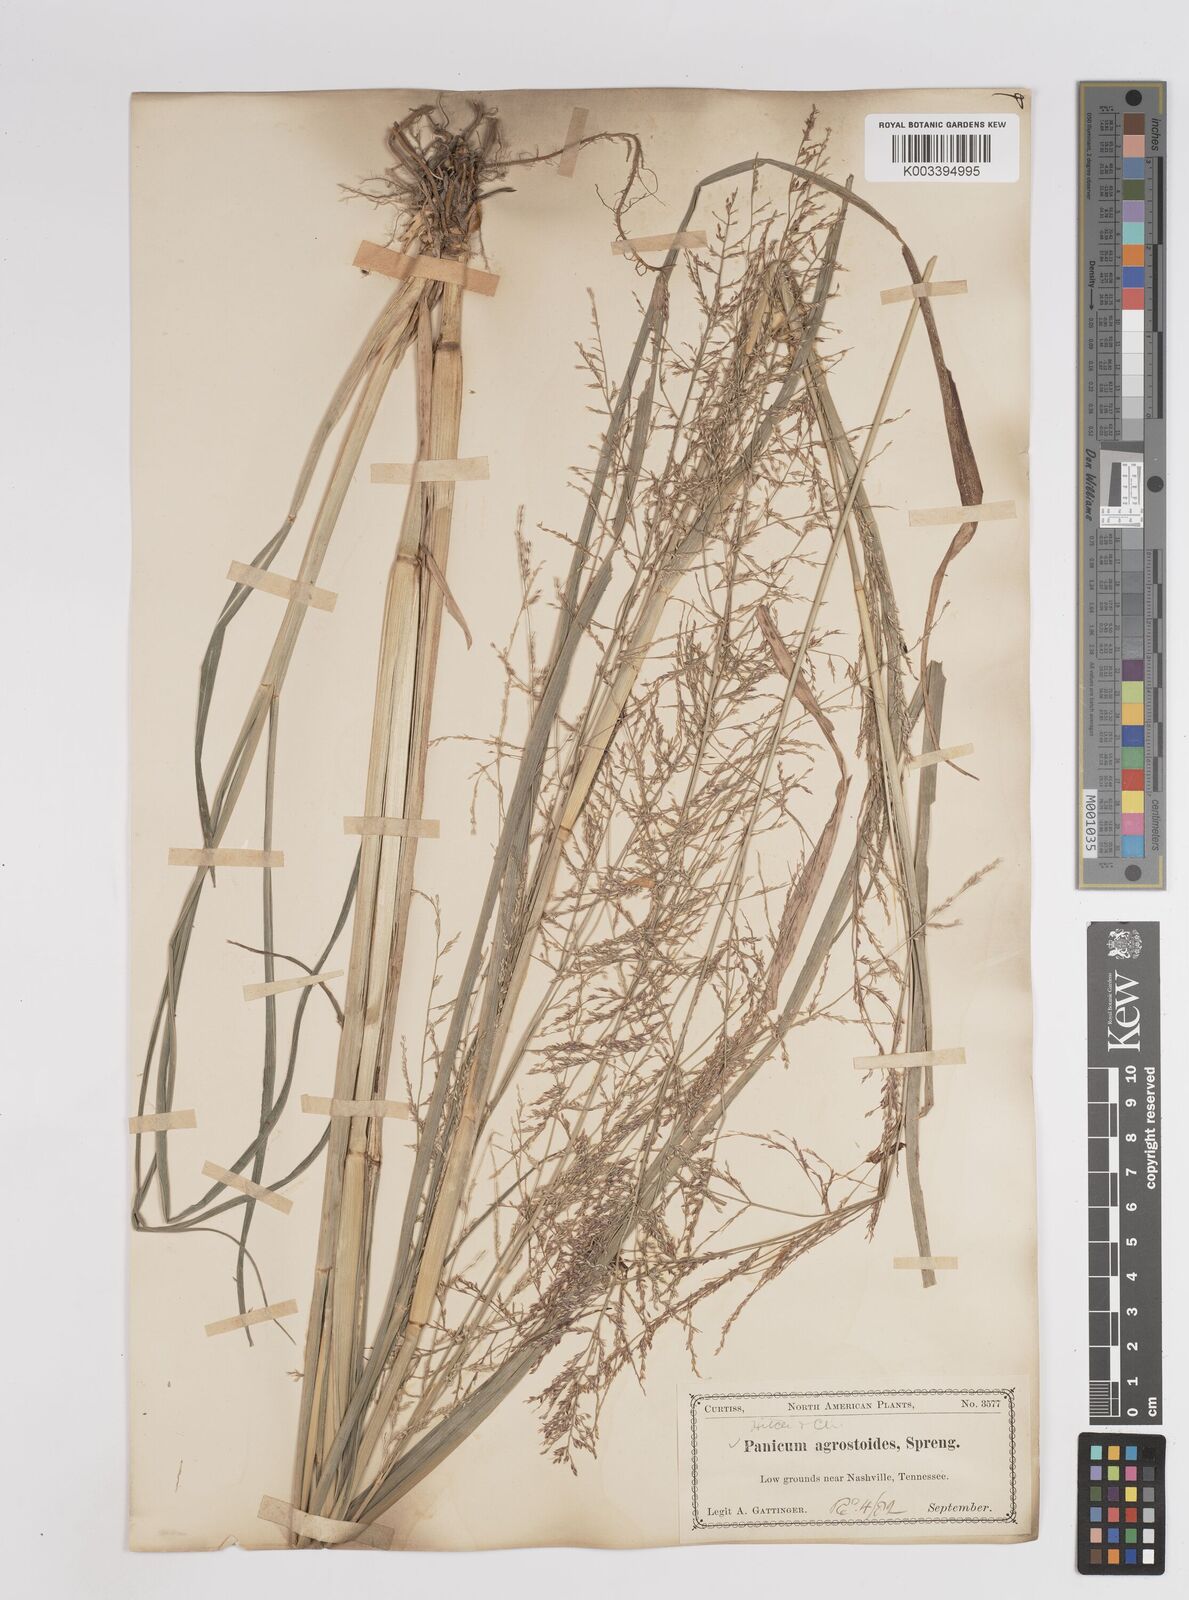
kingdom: Plantae
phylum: Tracheophyta
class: Liliopsida
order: Poales
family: Poaceae
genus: Coleataenia
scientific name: Coleataenia rigidula
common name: Redtop panicgrass
